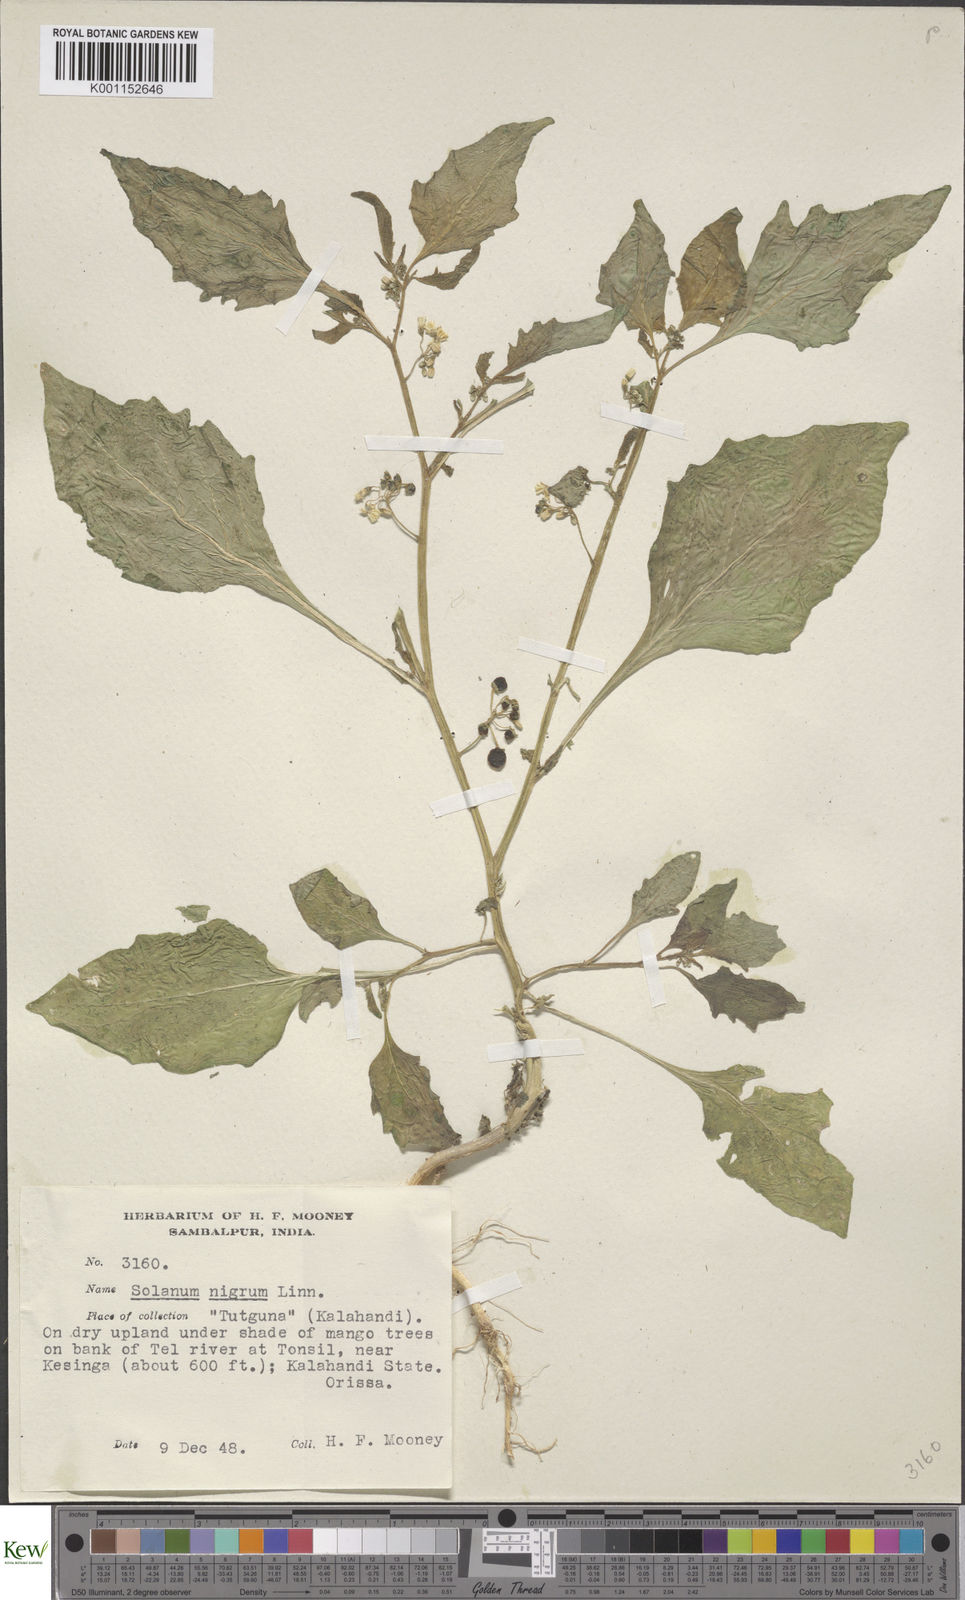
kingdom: Plantae
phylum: Tracheophyta
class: Magnoliopsida
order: Solanales
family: Solanaceae
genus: Solanum
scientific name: Solanum nigrum
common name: Black nightshade
